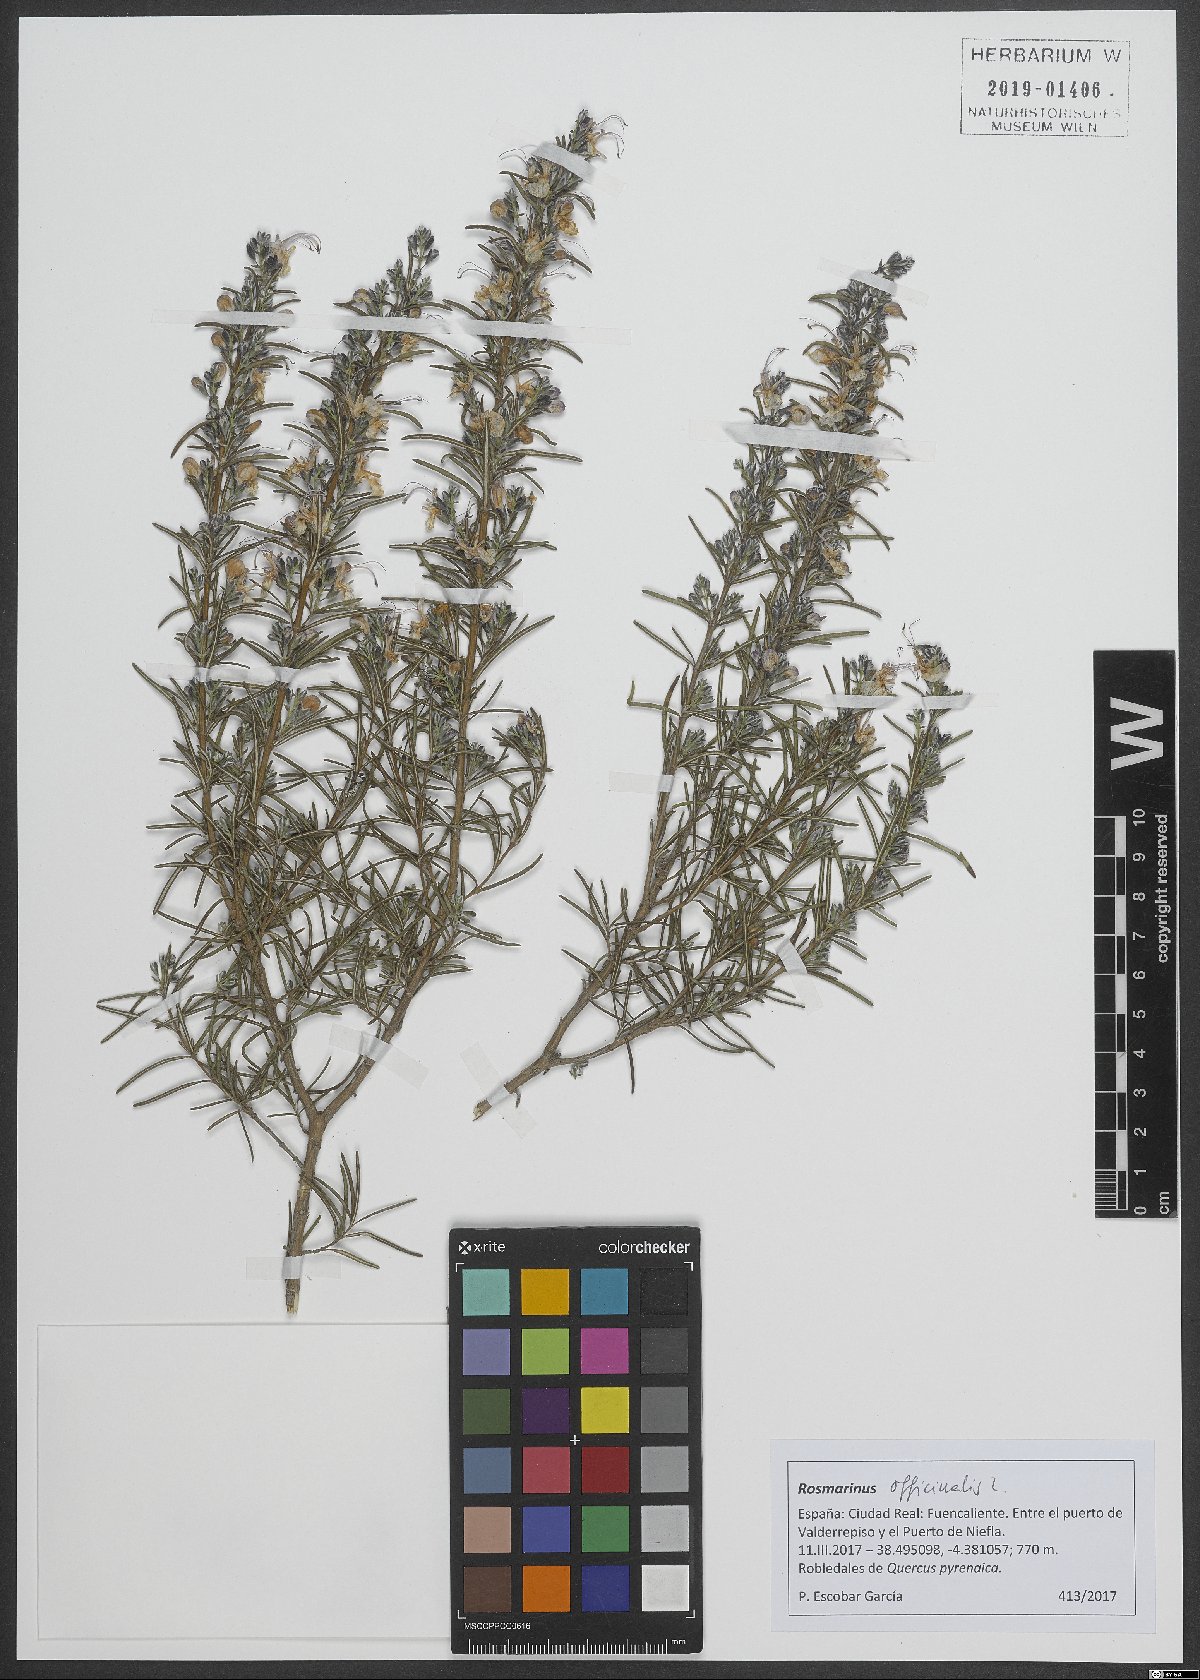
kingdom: Plantae
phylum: Tracheophyta
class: Magnoliopsida
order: Lamiales
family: Lamiaceae
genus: Salvia
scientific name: Salvia rosmarinus
